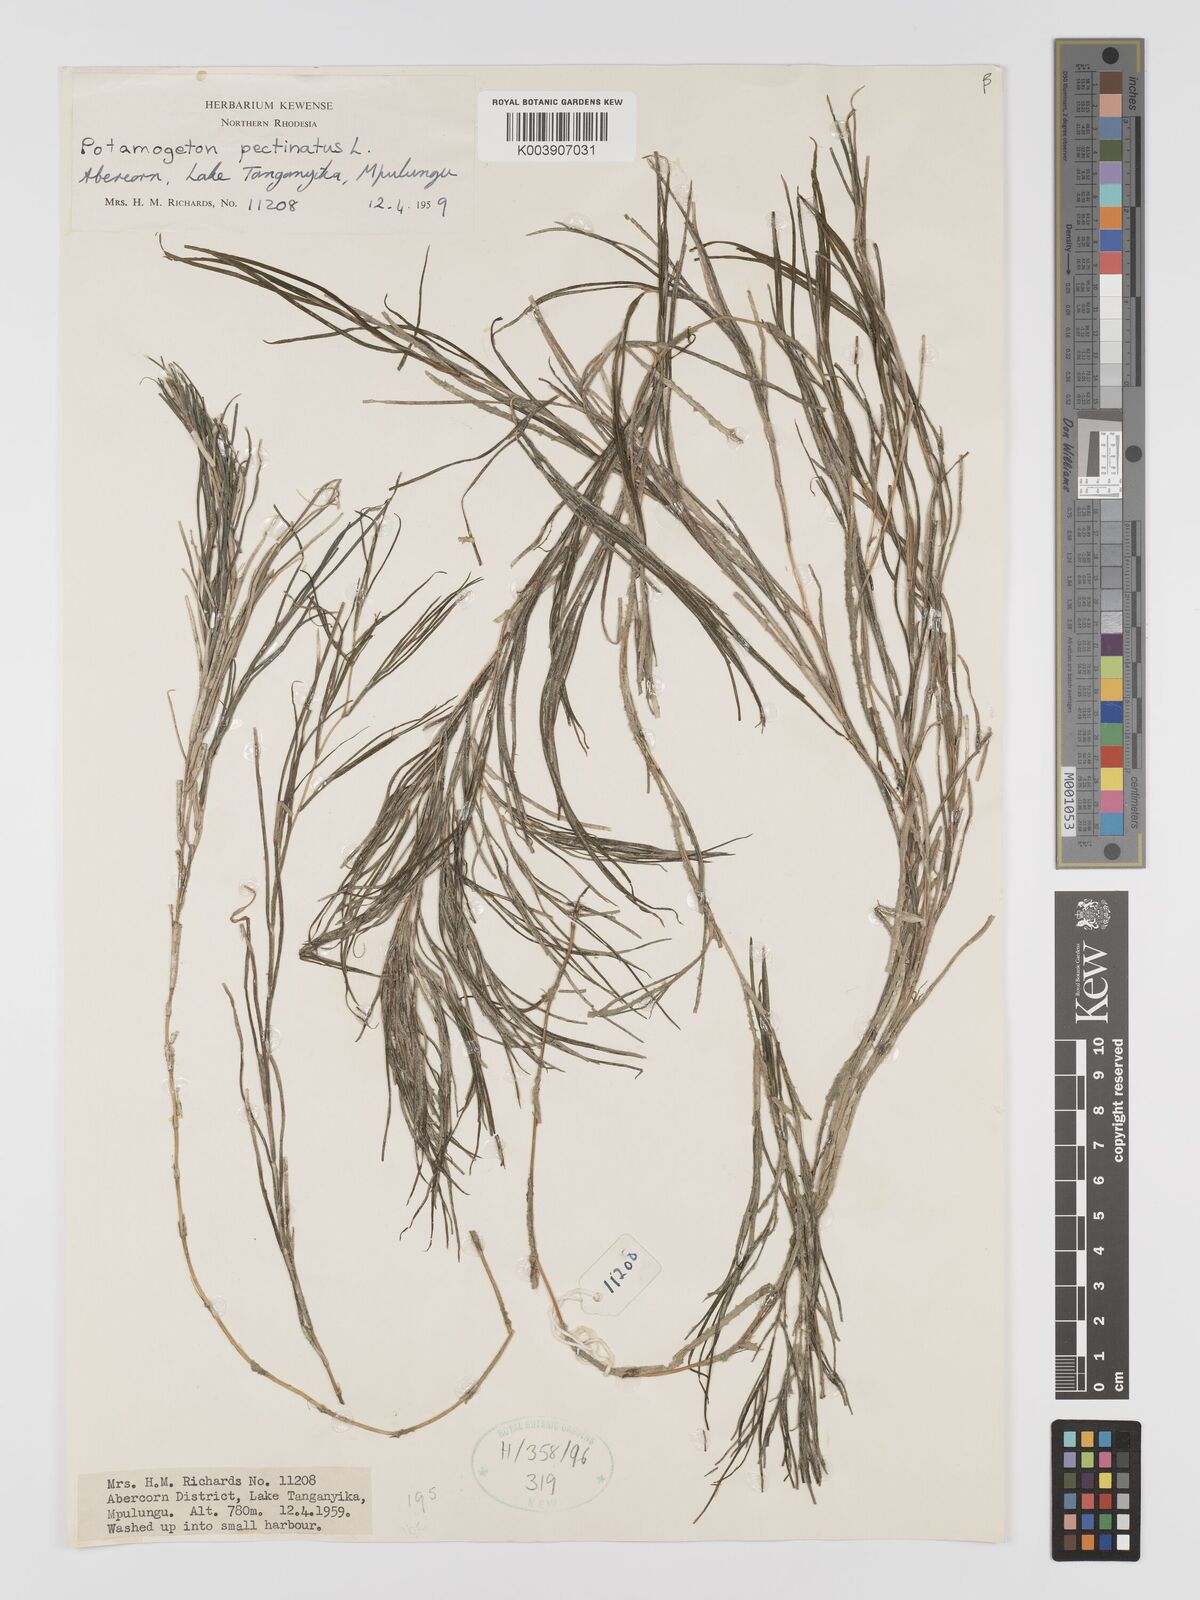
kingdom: Plantae
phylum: Tracheophyta
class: Liliopsida
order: Alismatales
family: Potamogetonaceae
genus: Stuckenia
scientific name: Stuckenia pectinata
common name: Sago pondweed
